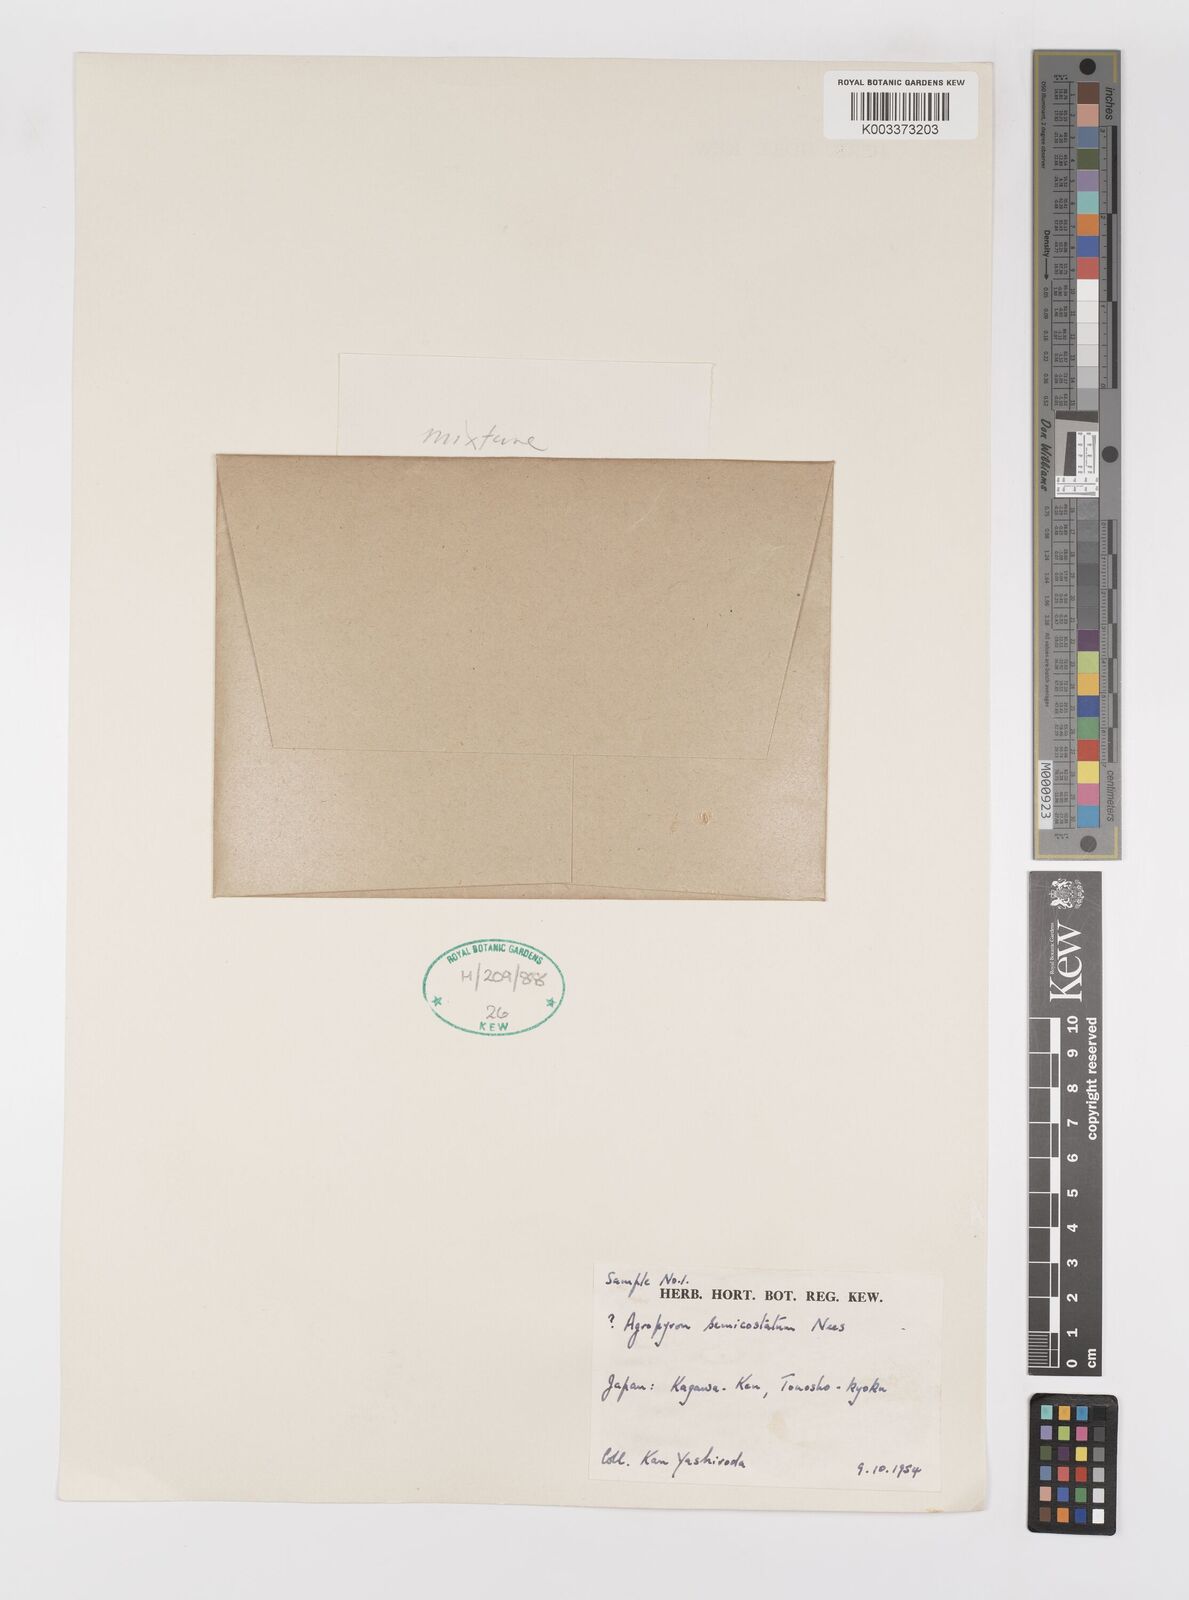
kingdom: Plantae
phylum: Tracheophyta
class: Liliopsida
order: Poales
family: Poaceae
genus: Elymus
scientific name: Elymus
